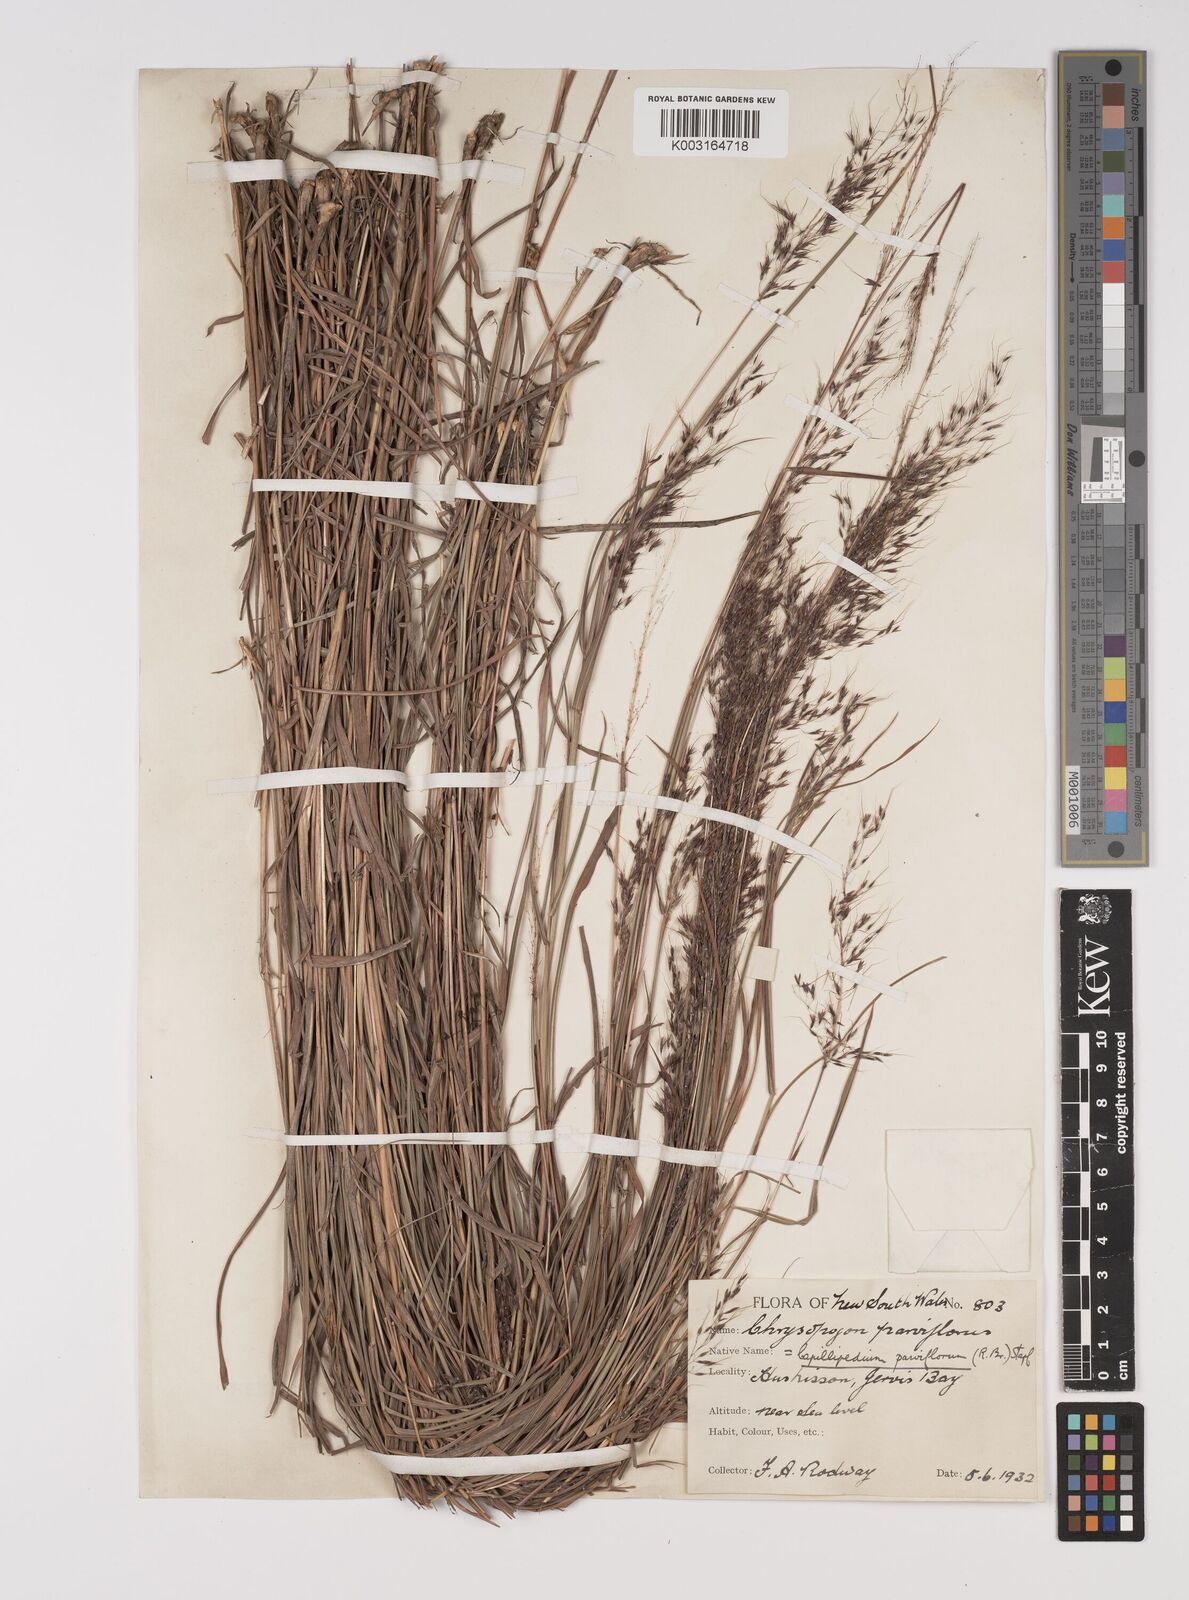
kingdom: Plantae
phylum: Tracheophyta
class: Liliopsida
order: Poales
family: Poaceae
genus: Capillipedium
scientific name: Capillipedium parviflorum
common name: Golden-beard
